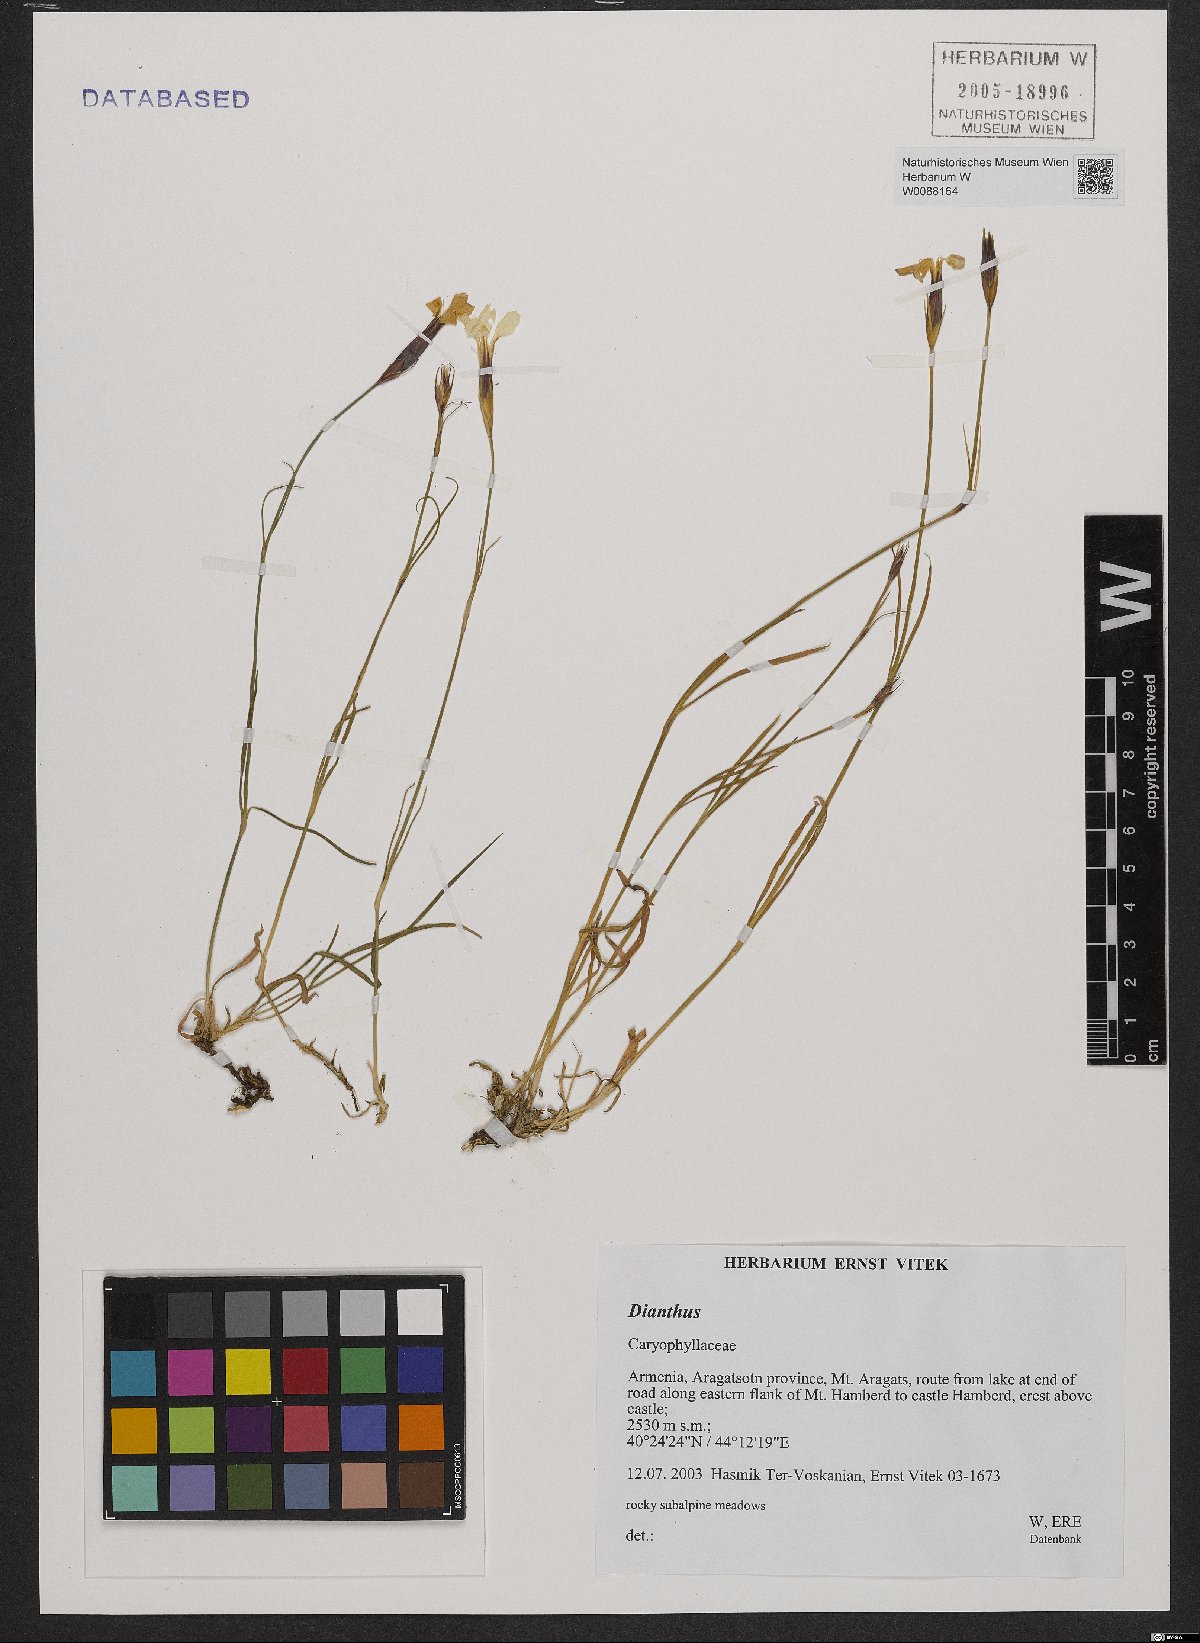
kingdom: Plantae
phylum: Tracheophyta
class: Magnoliopsida
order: Caryophyllales
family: Caryophyllaceae
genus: Dianthus
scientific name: Dianthus
